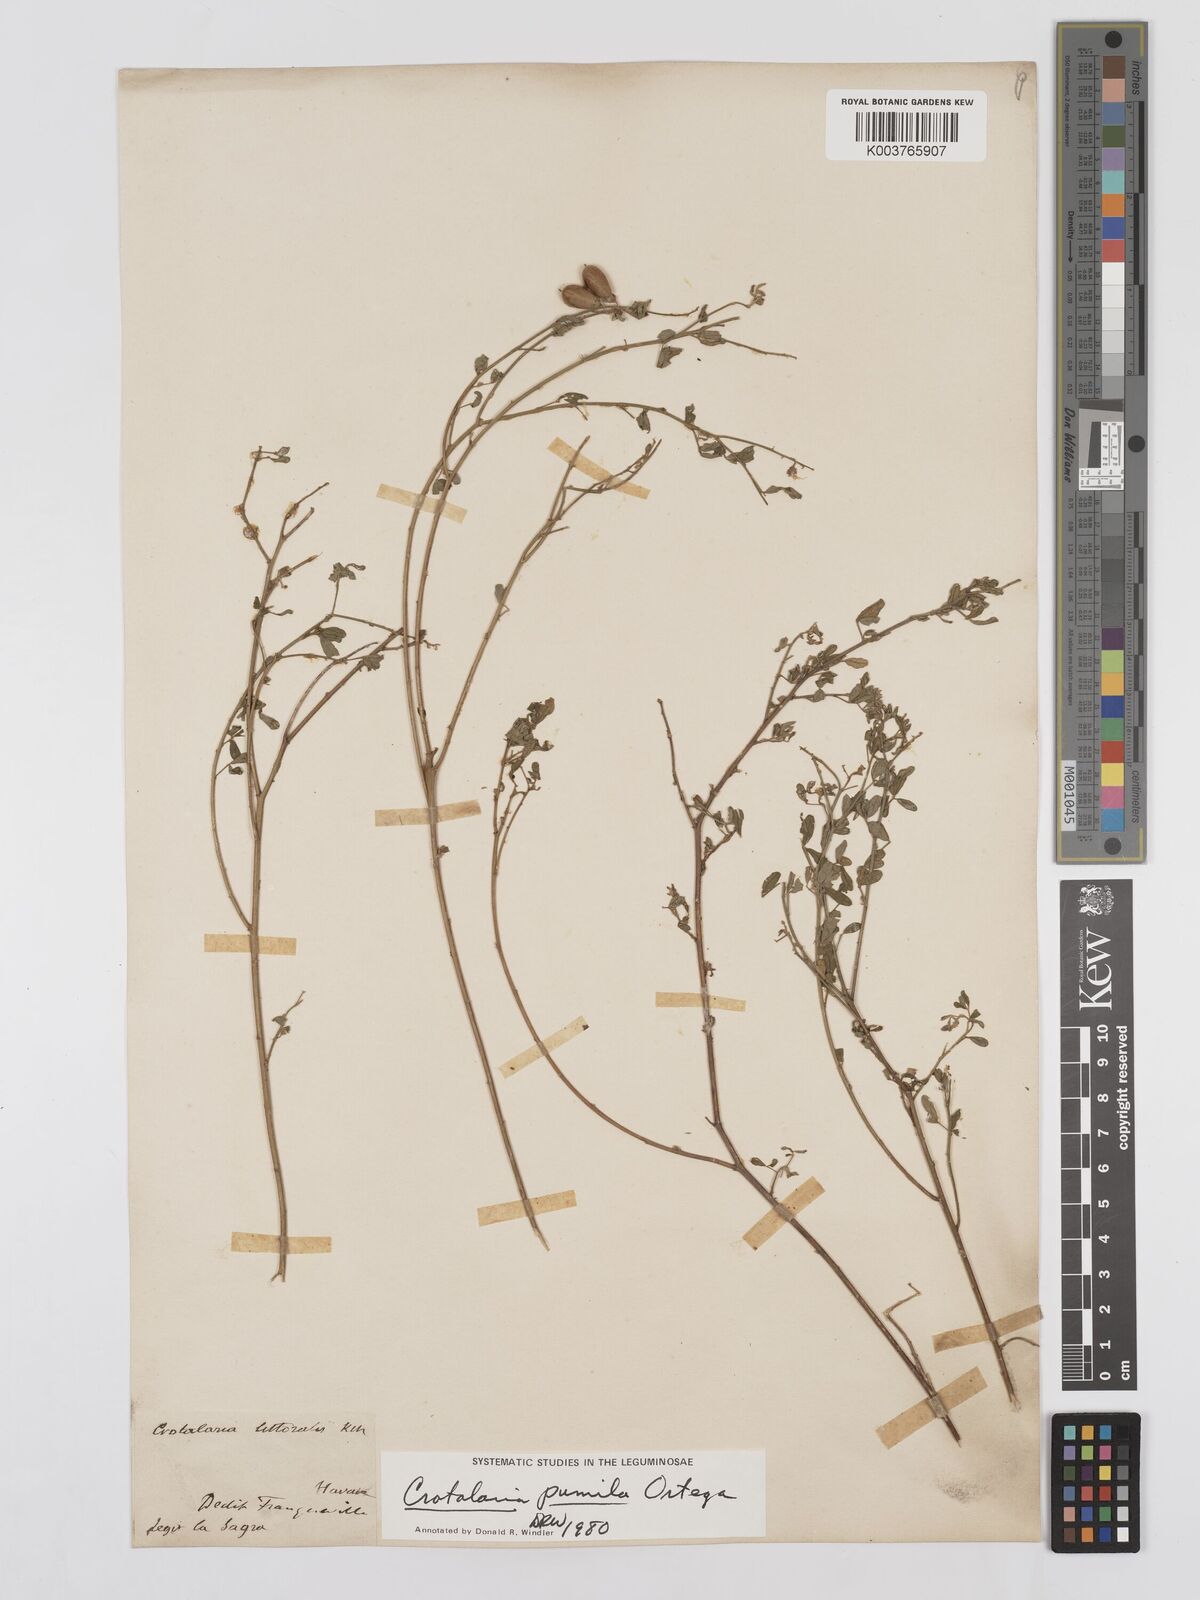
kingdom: Plantae
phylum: Tracheophyta
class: Magnoliopsida
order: Fabales
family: Fabaceae
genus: Crotalaria
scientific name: Crotalaria pumila
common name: Low rattlebox
